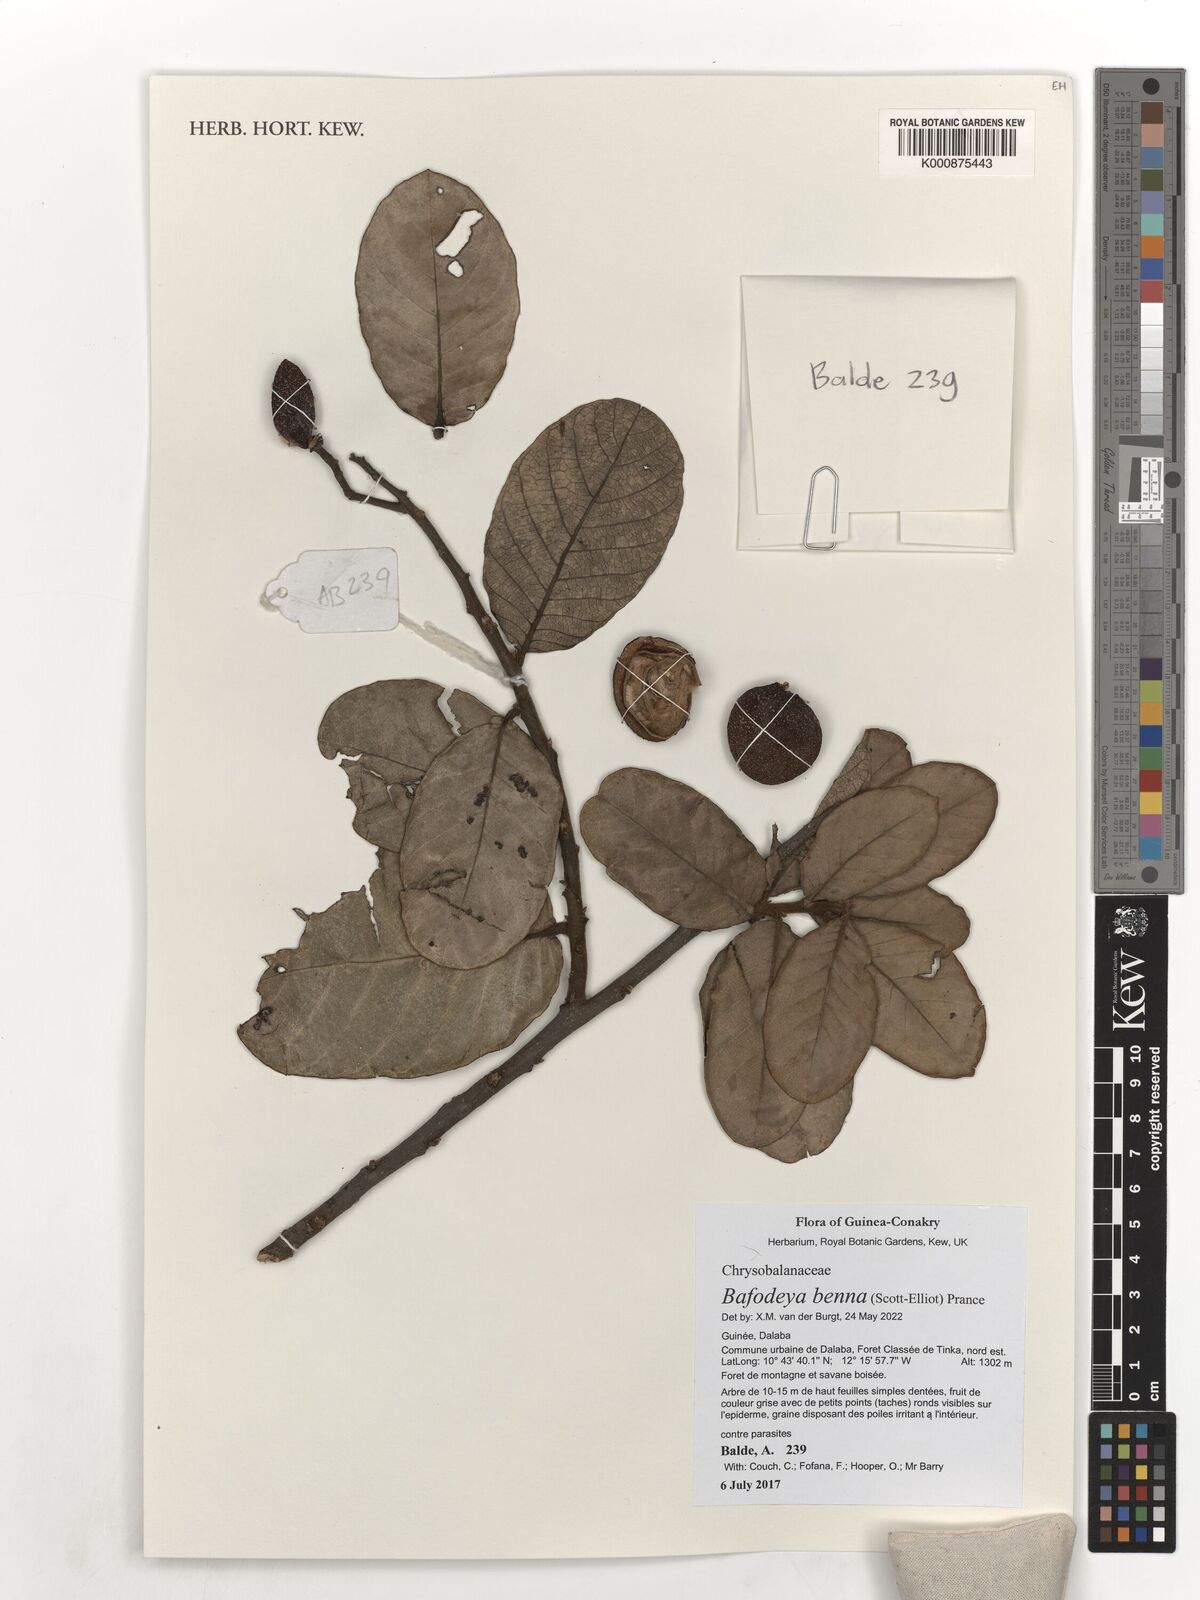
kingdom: Plantae
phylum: Tracheophyta
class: Magnoliopsida
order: Malpighiales
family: Chrysobalanaceae
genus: Bafodeya
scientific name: Bafodeya benna
